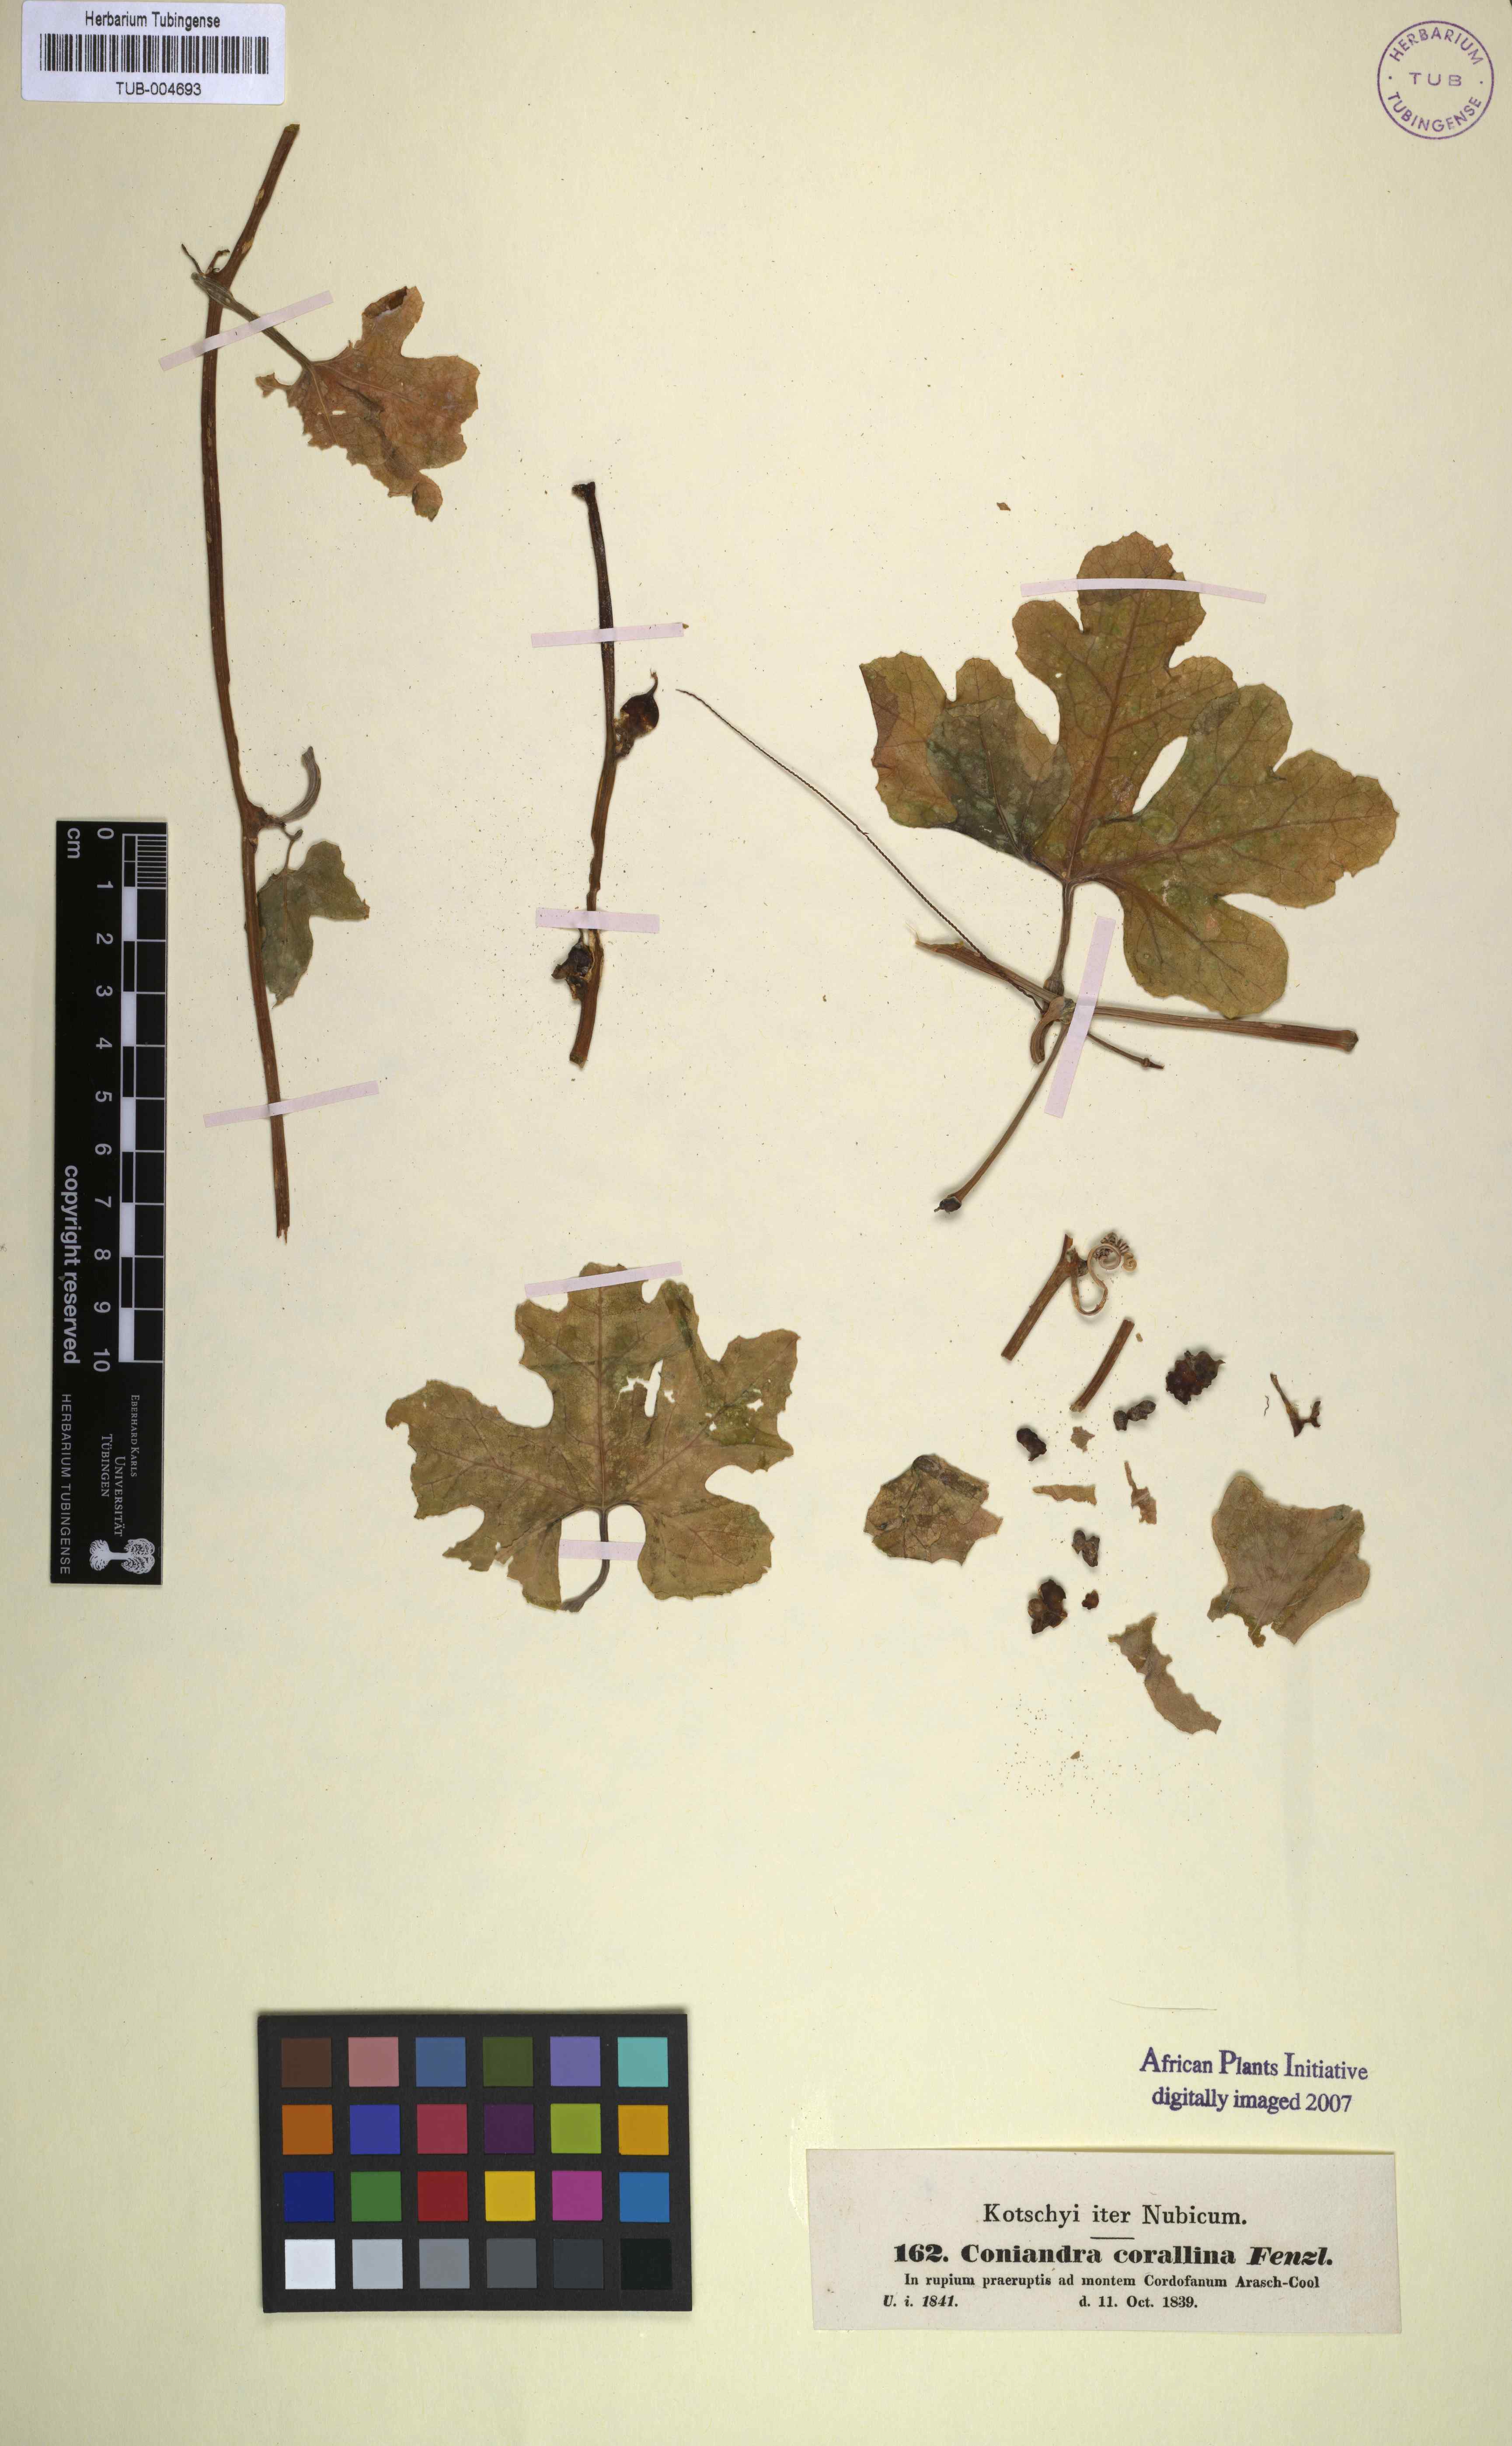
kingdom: Plantae
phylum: Tracheophyta
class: Magnoliopsida
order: Cucurbitales
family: Cucurbitaceae
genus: Corallocarpus
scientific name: Corallocarpus epigaeus
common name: Indian bryonia
